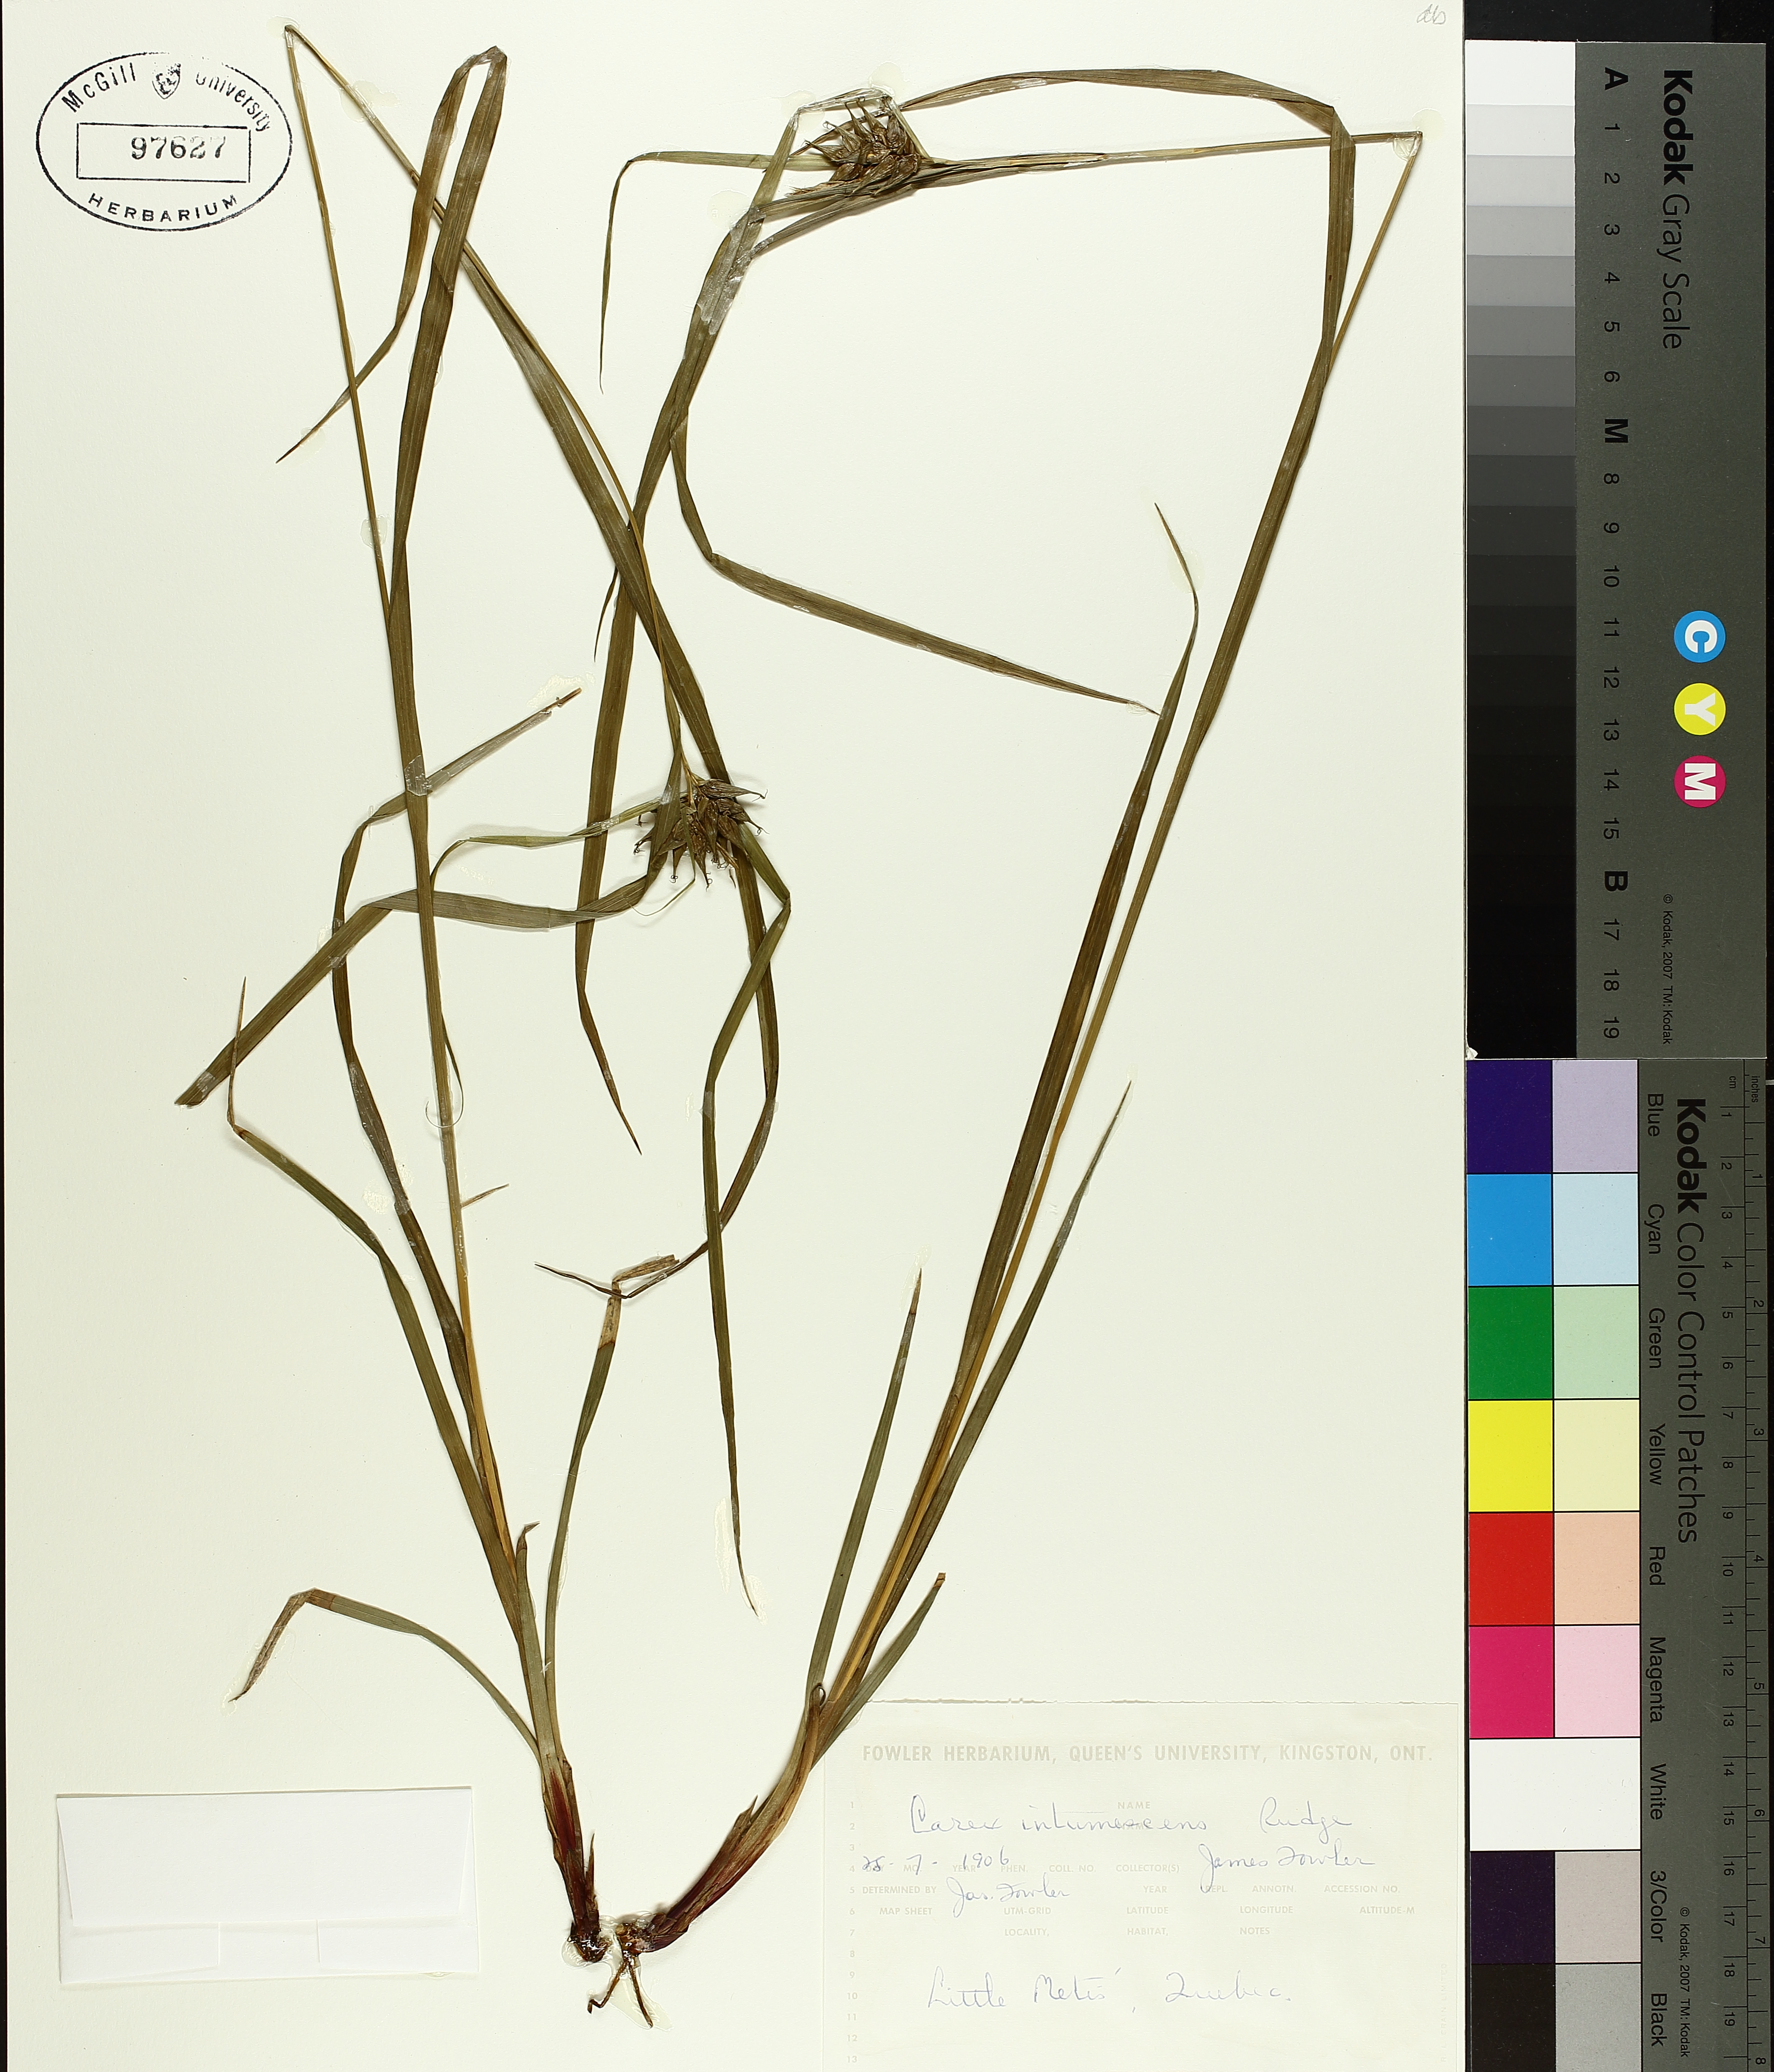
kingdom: Plantae
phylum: Tracheophyta
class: Liliopsida
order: Poales
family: Cyperaceae
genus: Carex
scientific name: Carex intumescens
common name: Greater bladder sedge
